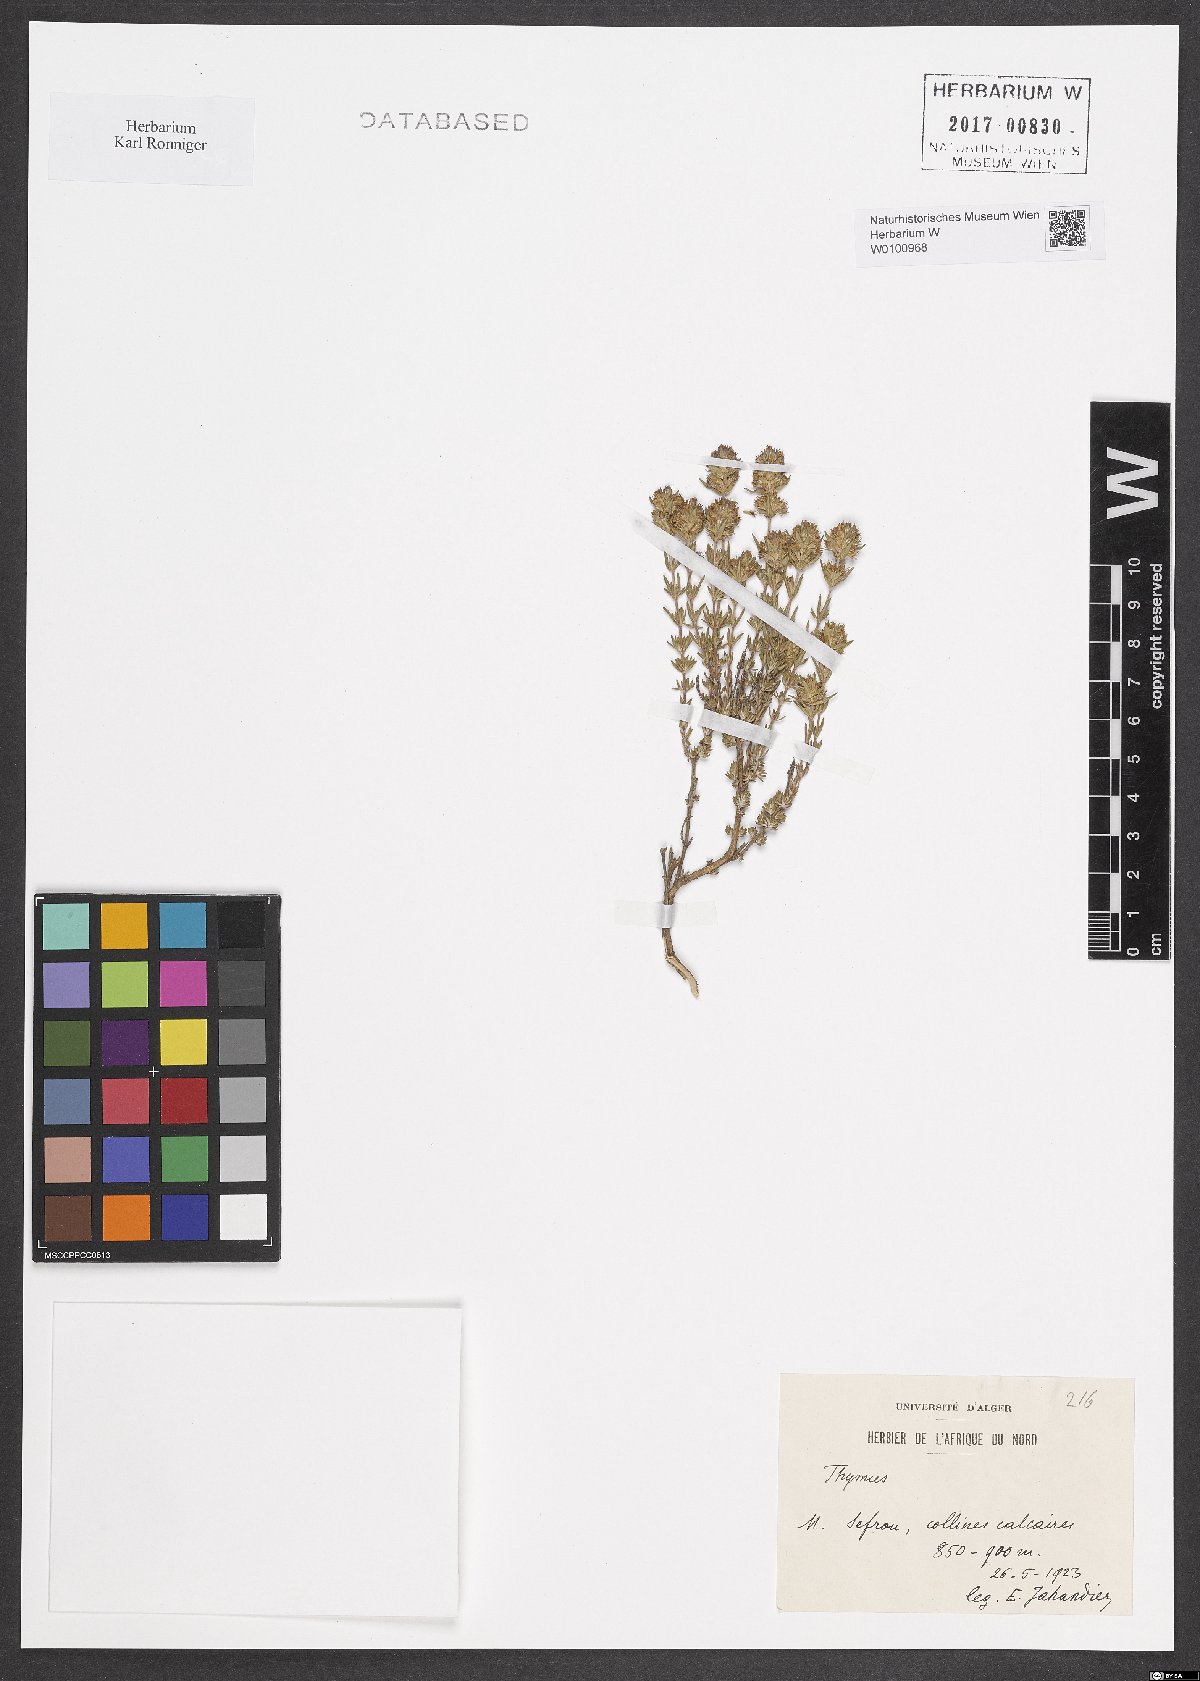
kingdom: Plantae
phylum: Tracheophyta
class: Magnoliopsida
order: Lamiales
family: Lamiaceae
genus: Thymus
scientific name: Thymus
